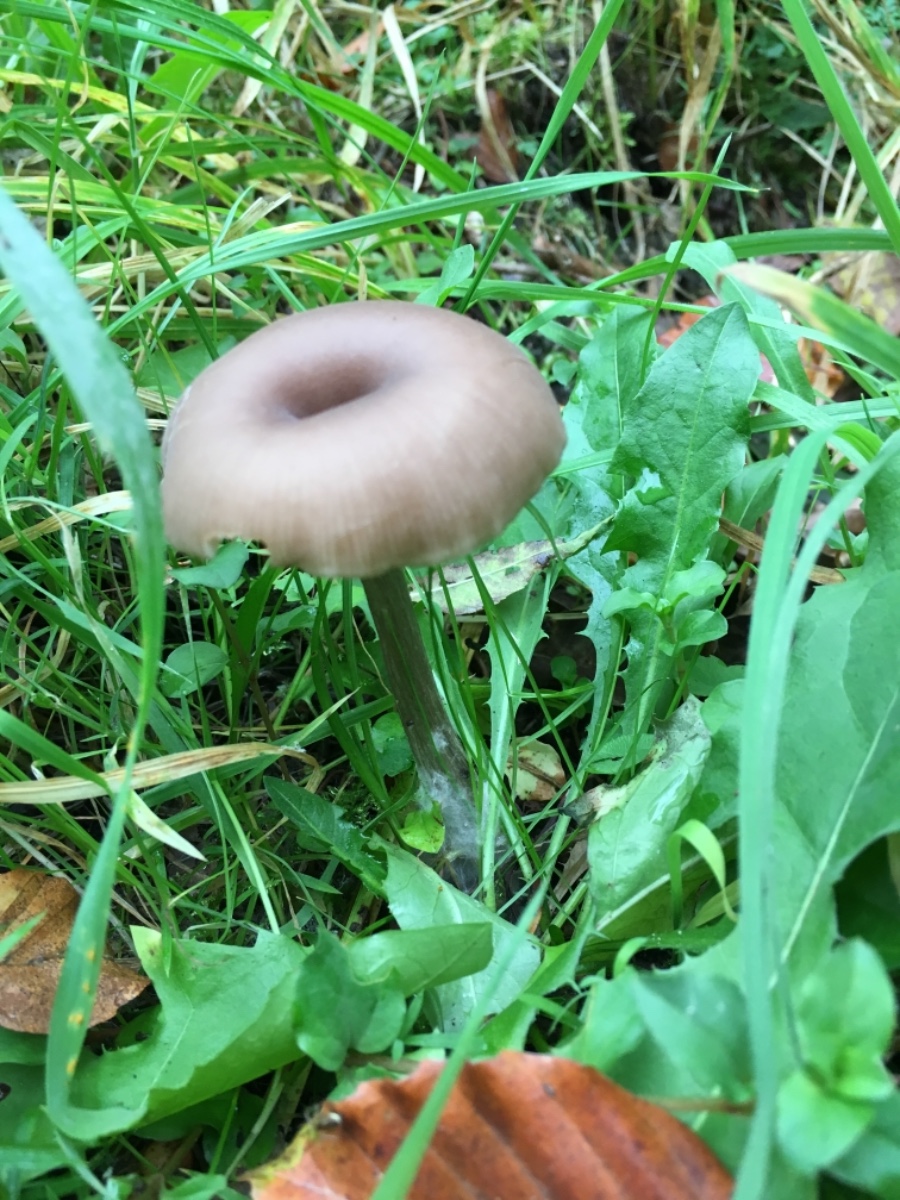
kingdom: Fungi
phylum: Basidiomycota
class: Agaricomycetes
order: Agaricales
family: Pseudoclitocybaceae
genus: Pseudoclitocybe
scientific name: Pseudoclitocybe
